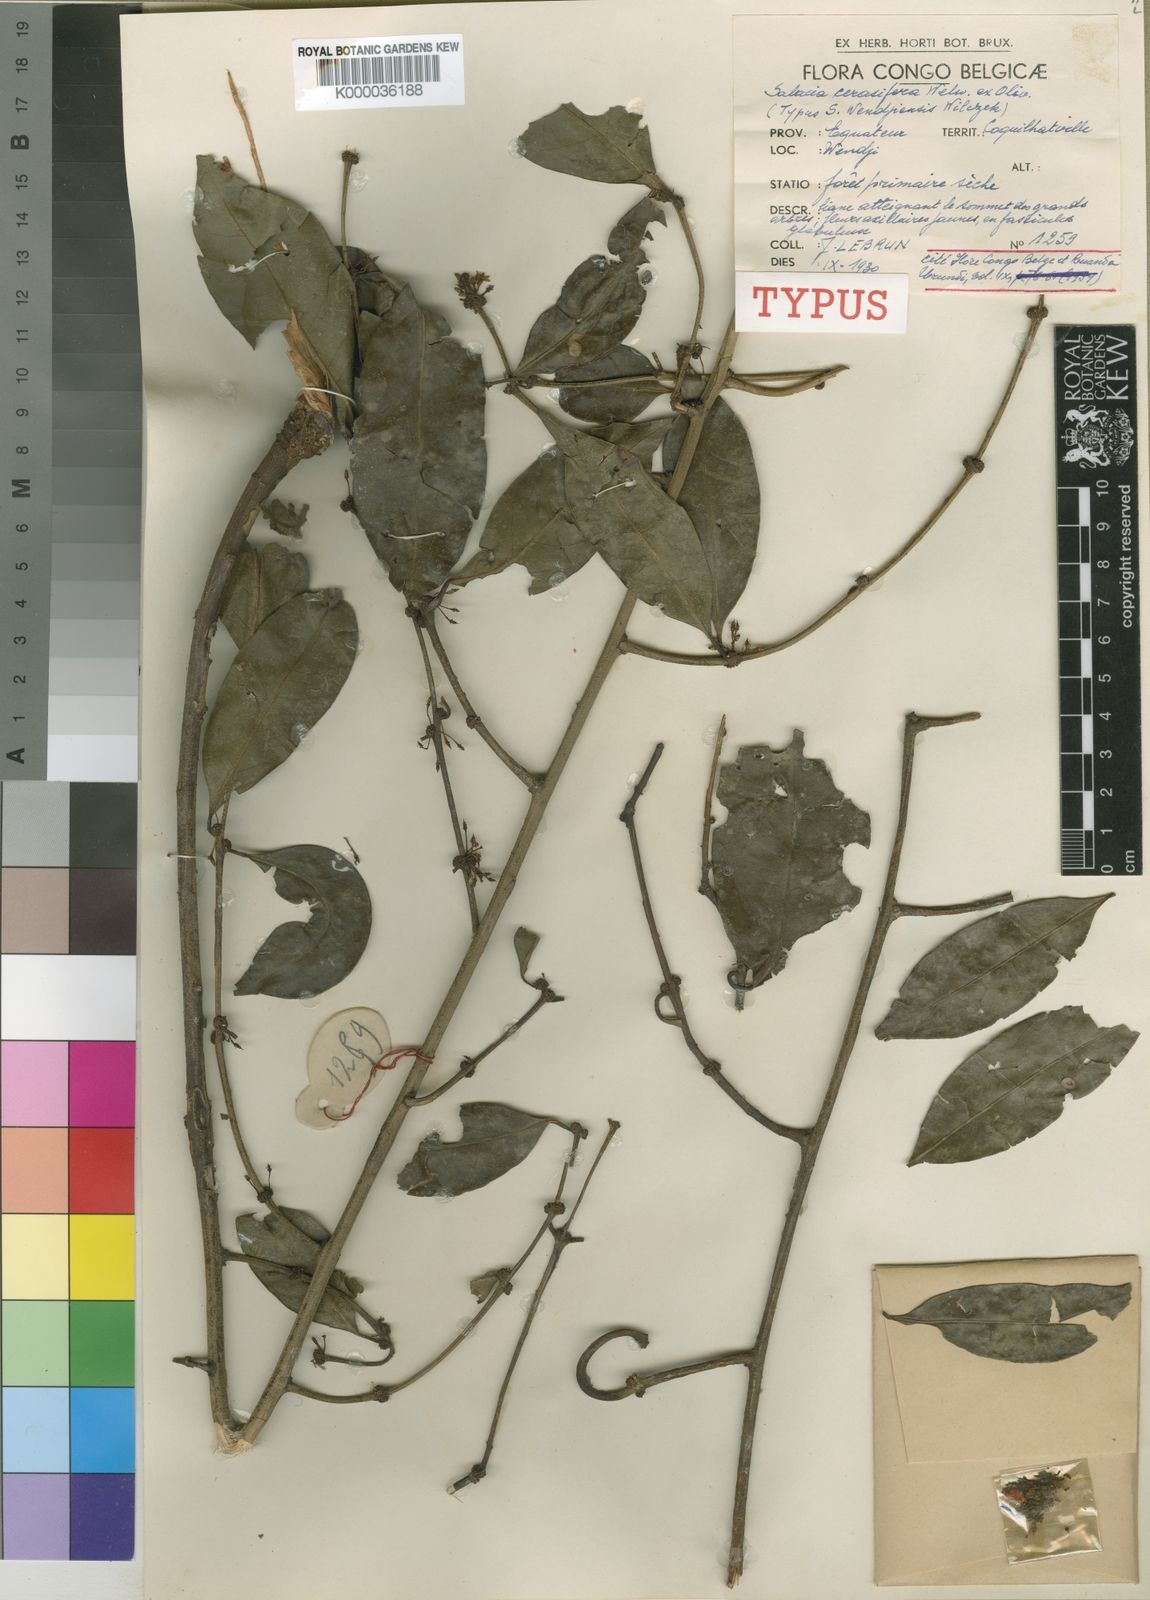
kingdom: Plantae
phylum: Tracheophyta
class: Magnoliopsida
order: Celastrales
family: Celastraceae
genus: Salacia
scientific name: Salacia cerasifera
